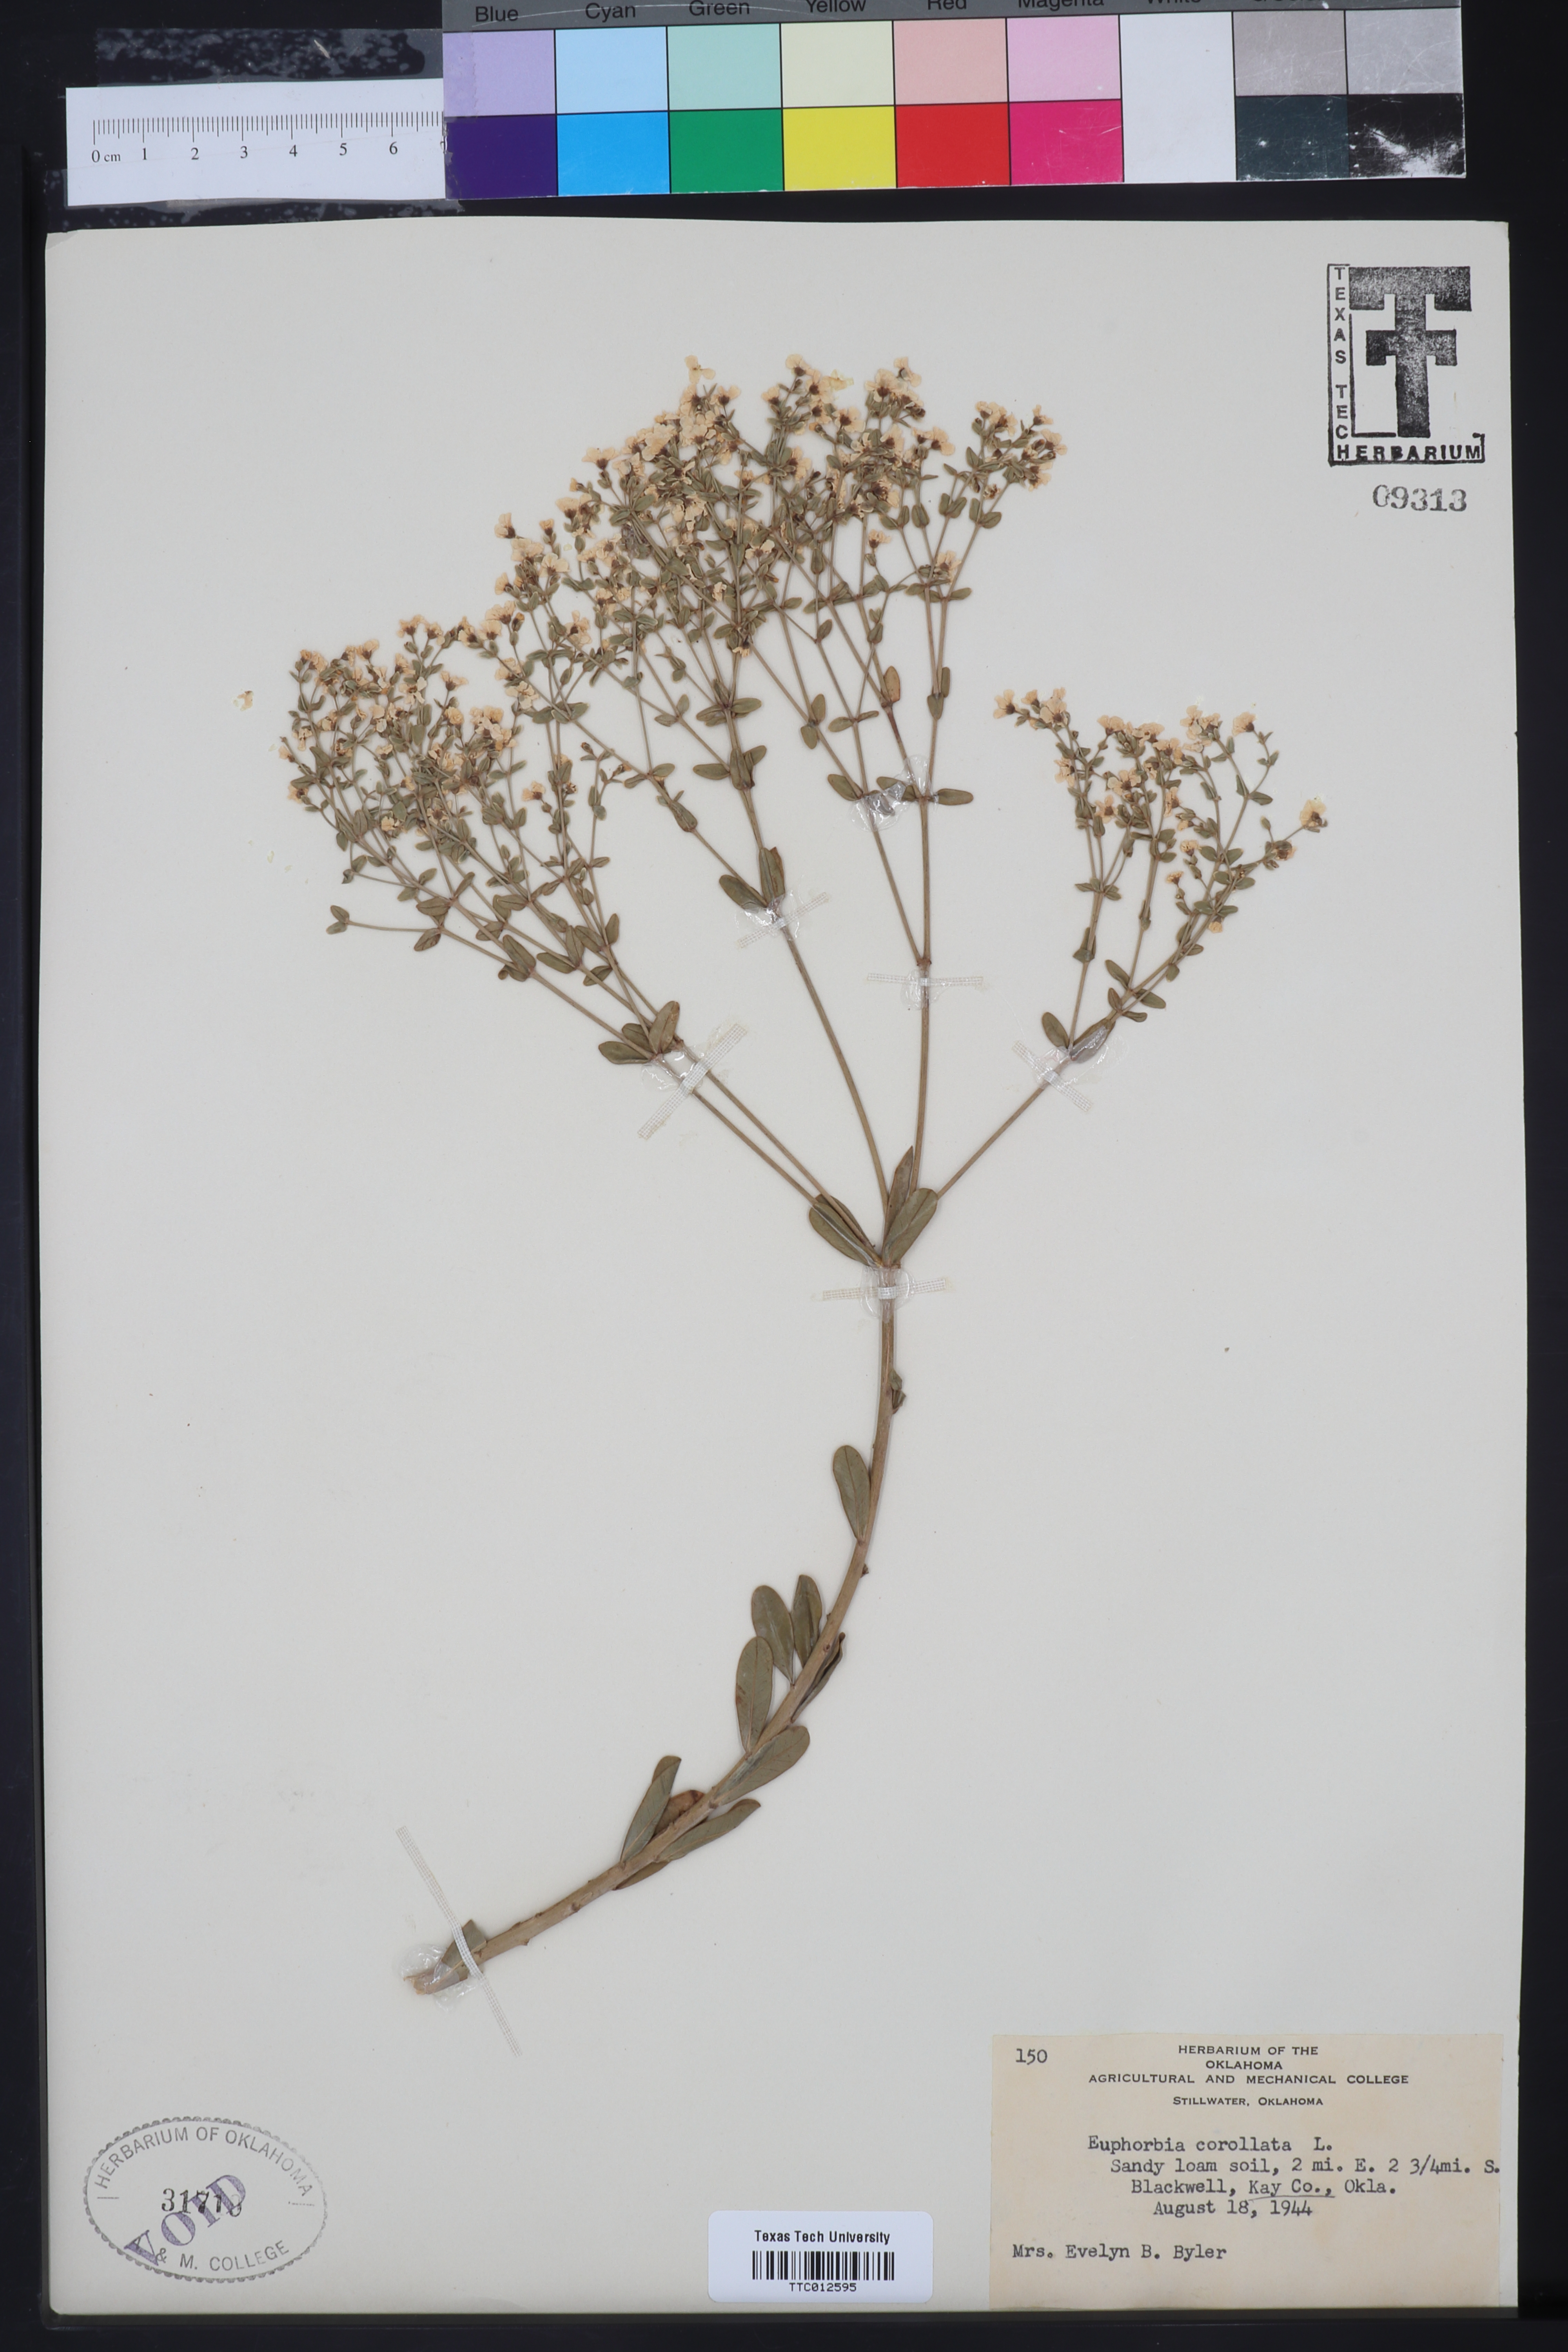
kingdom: Plantae
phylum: Tracheophyta
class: Magnoliopsida
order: Malpighiales
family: Euphorbiaceae
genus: Euphorbia
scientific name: Euphorbia corollata
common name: Flowering spurge
